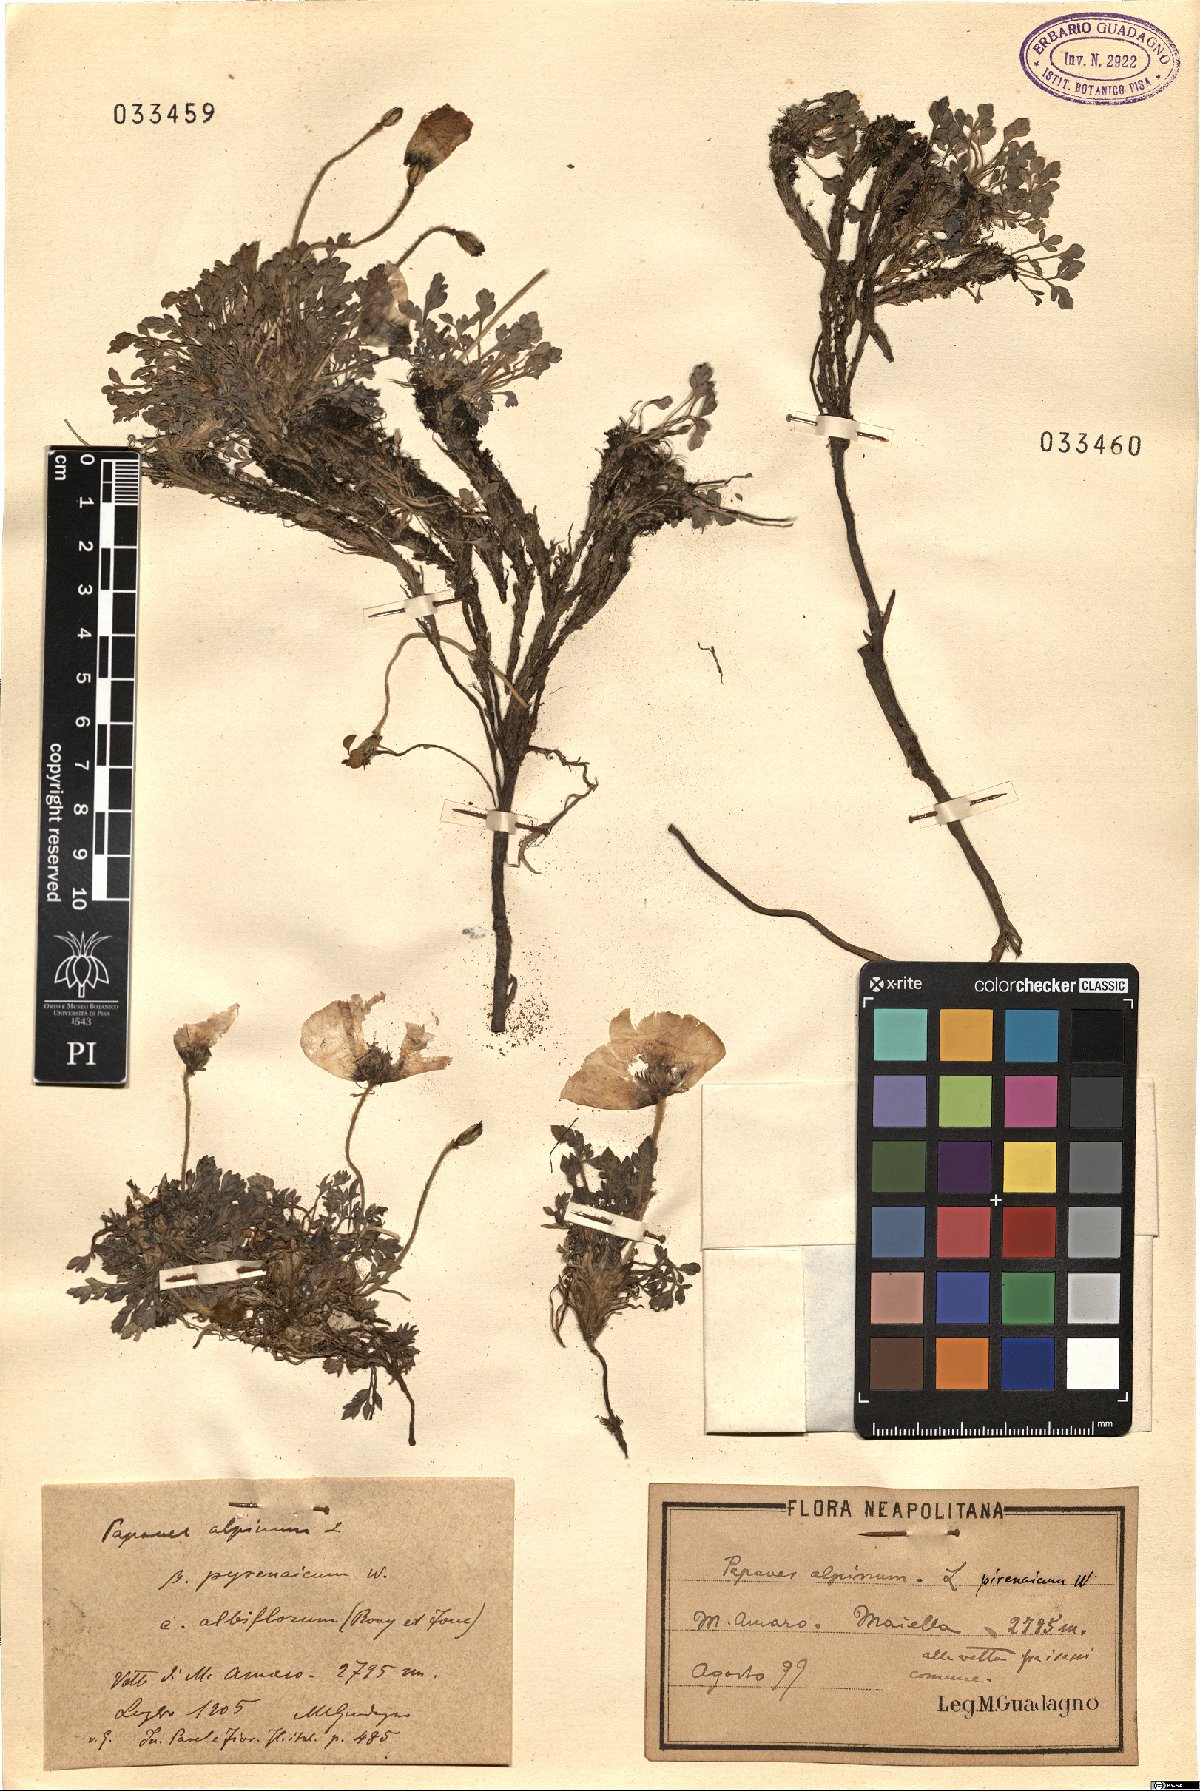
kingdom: Plantae
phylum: Tracheophyta
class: Magnoliopsida
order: Ranunculales
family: Papaveraceae
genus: Papaver
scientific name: Papaver alpinum
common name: Austrian poppy
